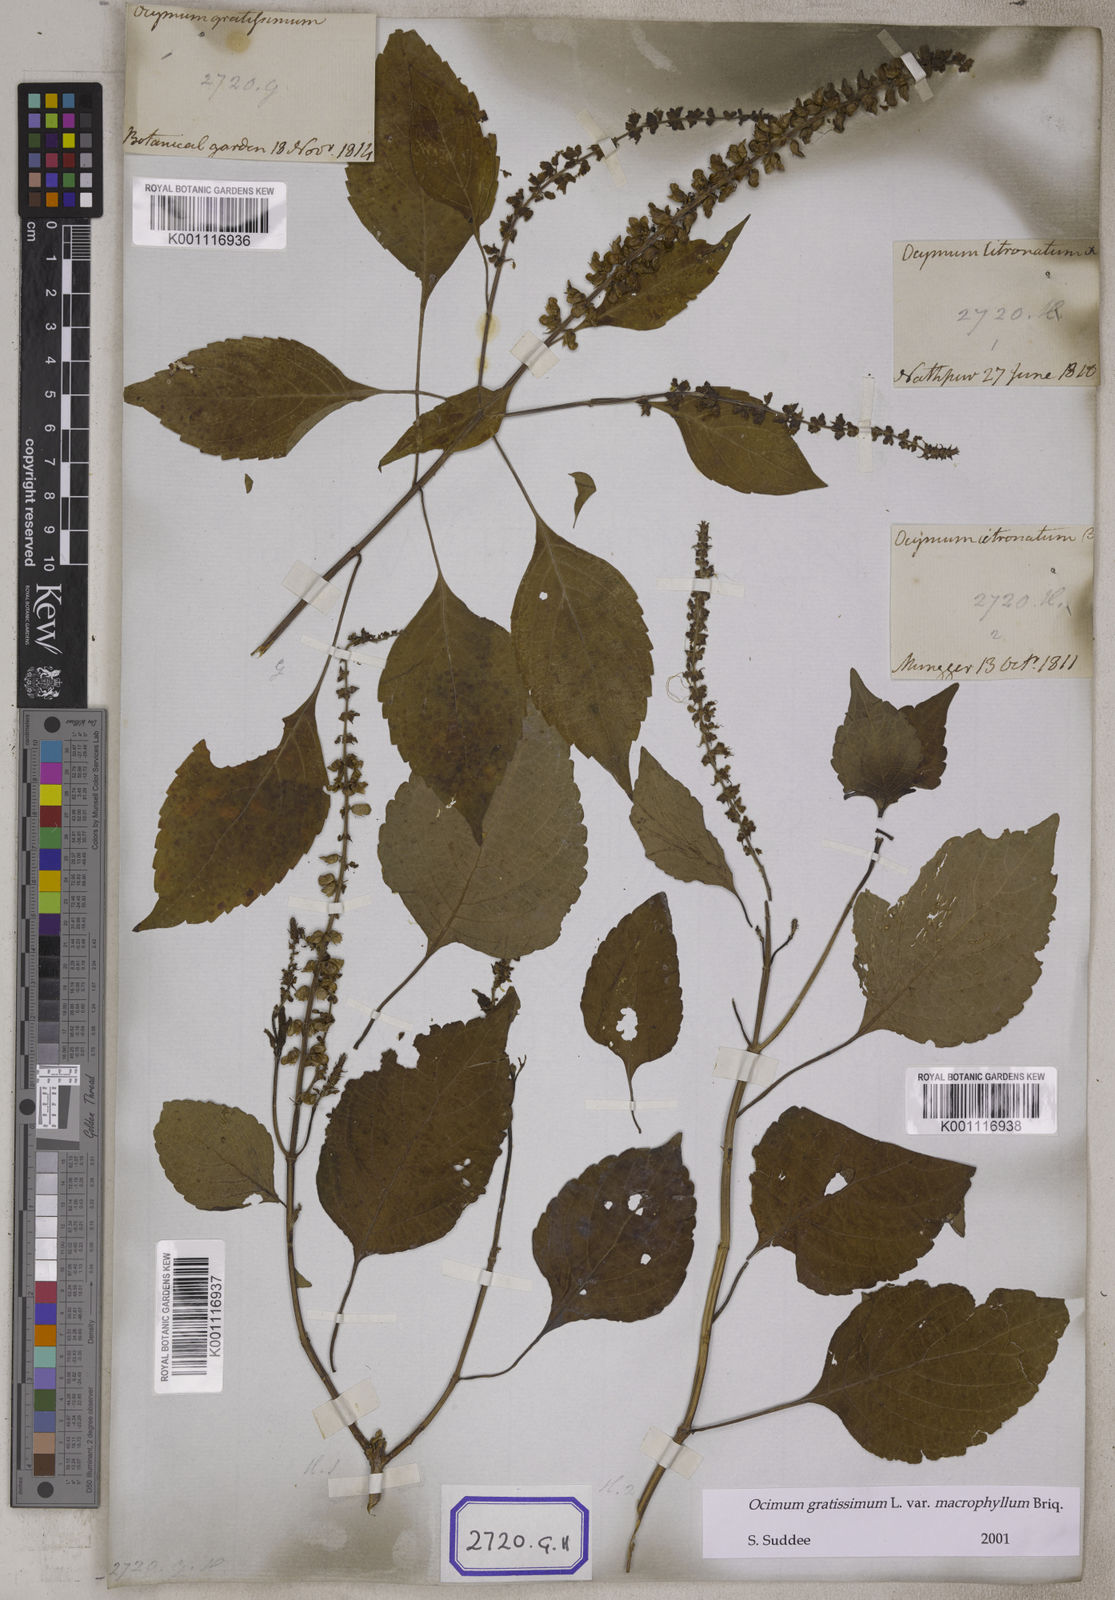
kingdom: Plantae
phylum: Tracheophyta
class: Magnoliopsida
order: Lamiales
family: Lamiaceae
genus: Ocimum
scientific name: Ocimum gratissimum
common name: African basil
